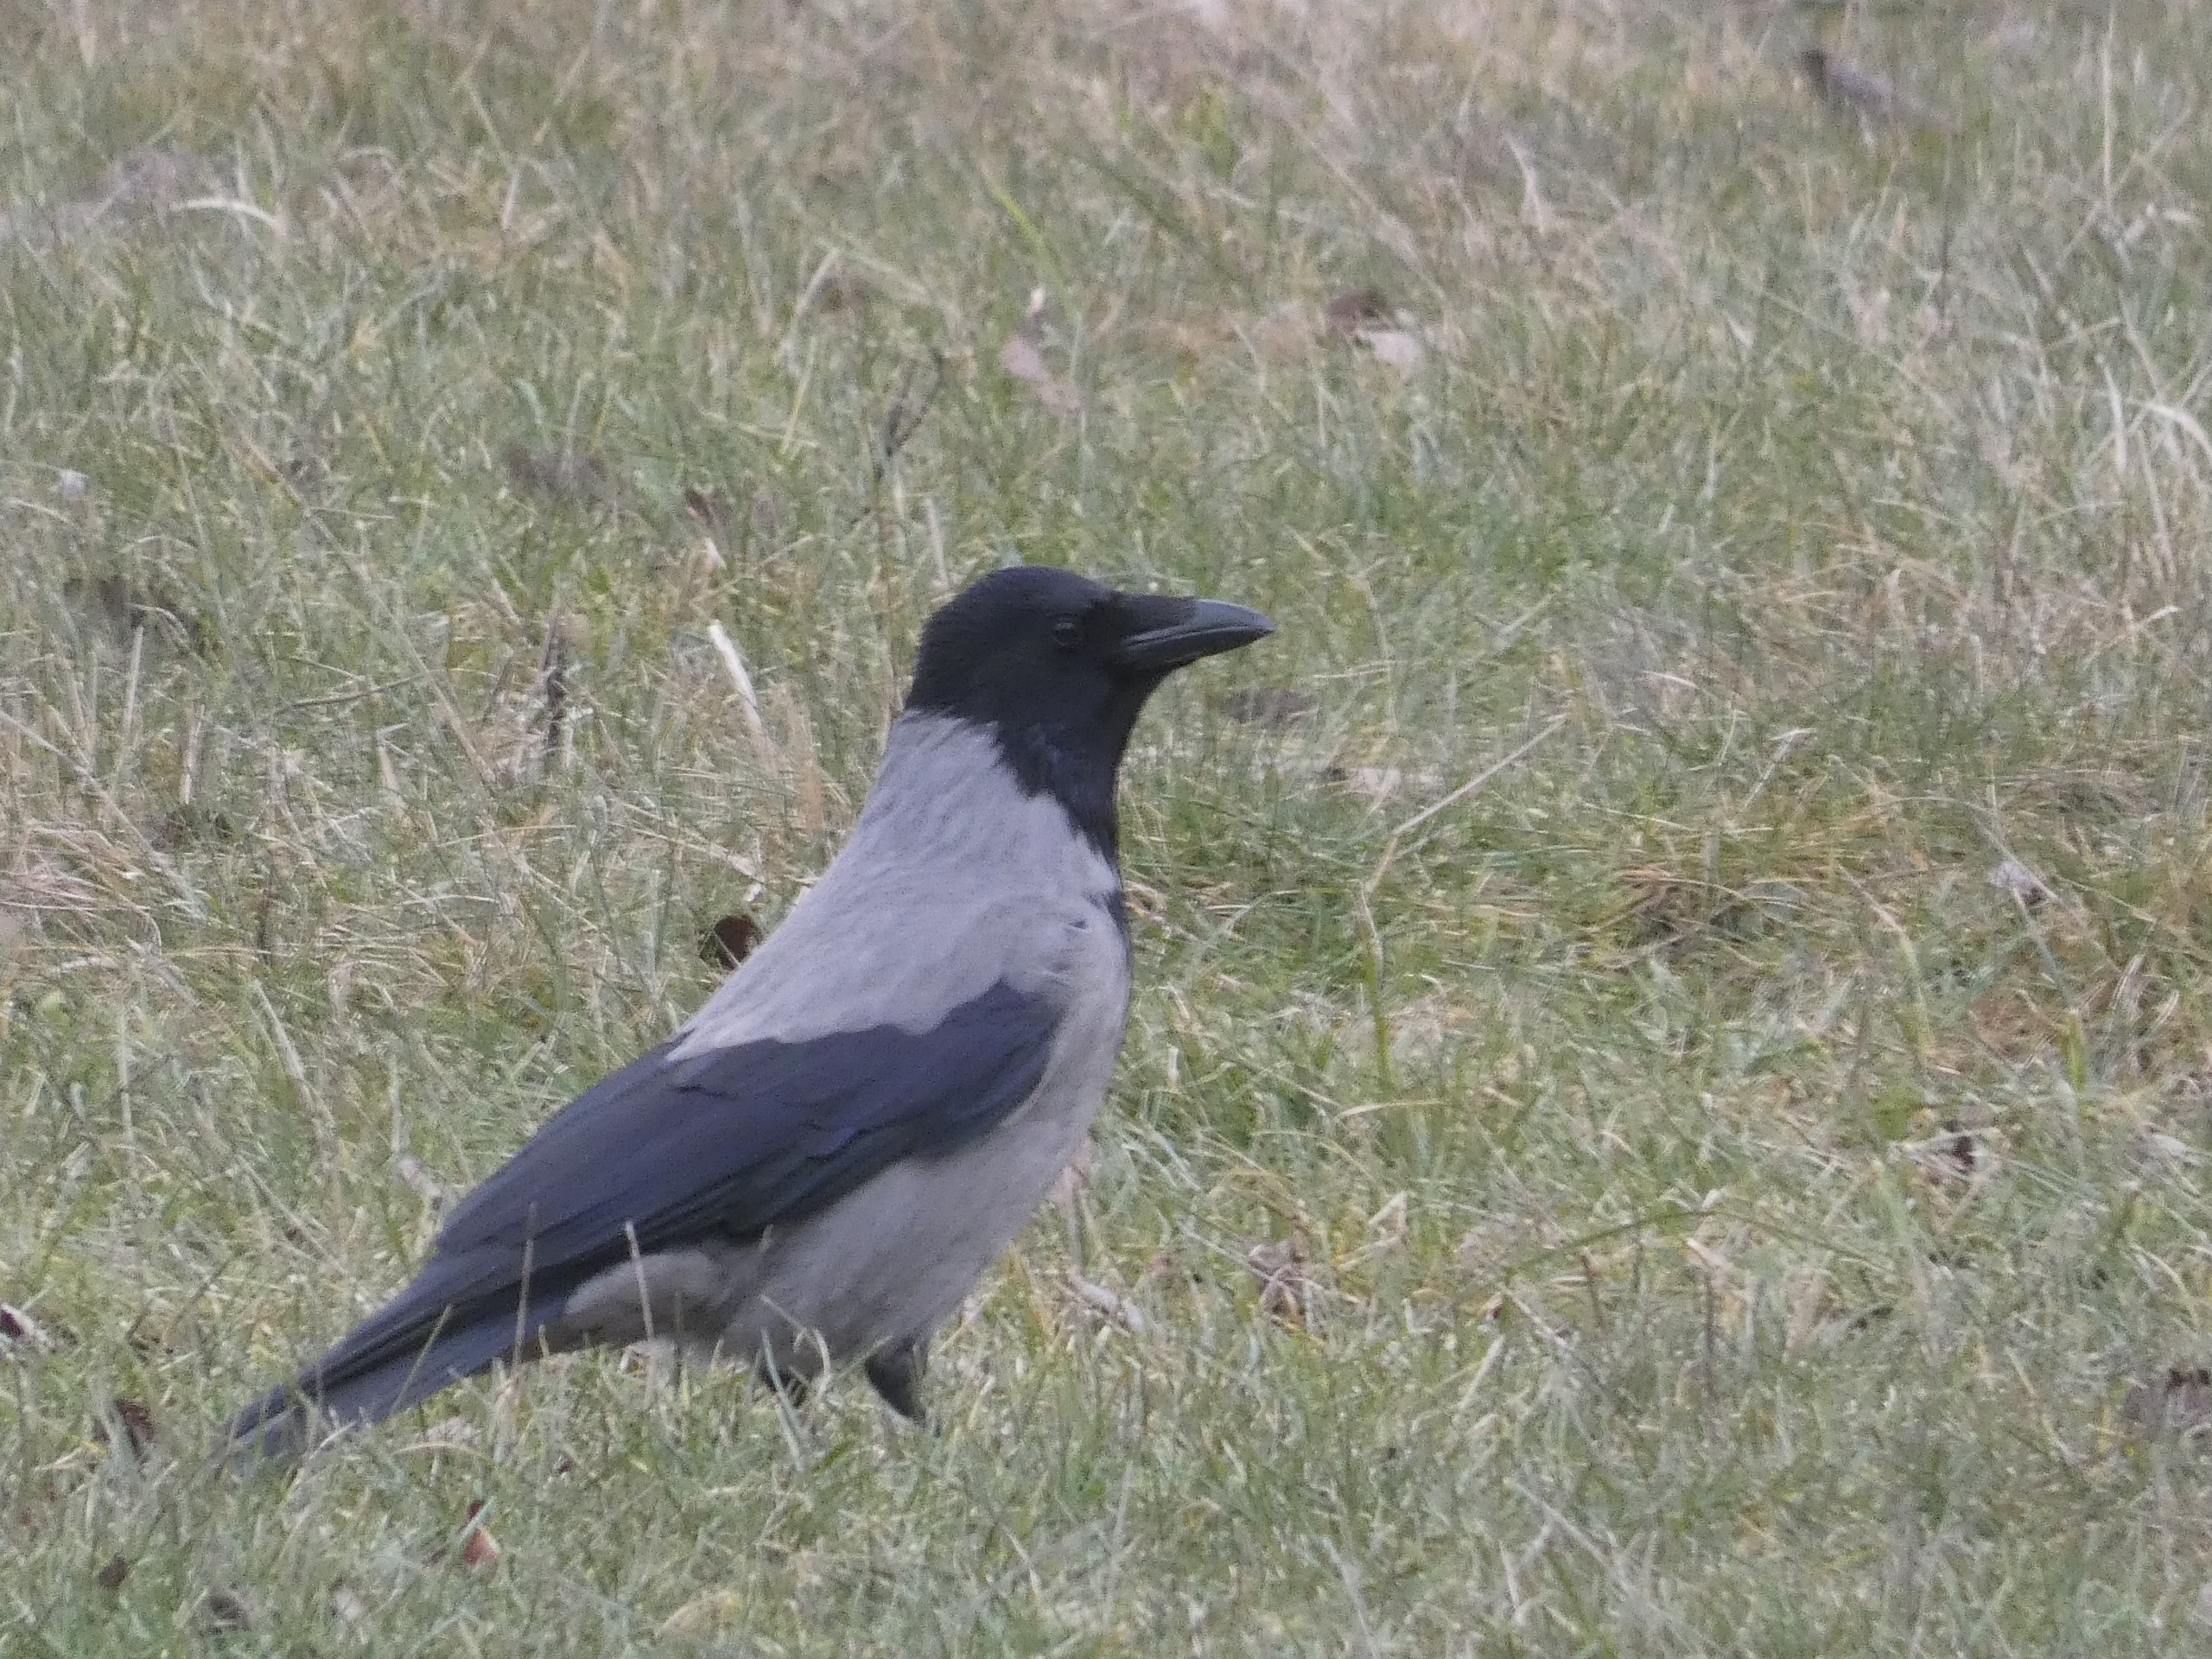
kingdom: Animalia
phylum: Chordata
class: Aves
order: Passeriformes
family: Corvidae
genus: Corvus
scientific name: Corvus cornix
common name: Gråkrage
